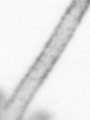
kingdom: Animalia
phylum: Arthropoda
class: Copepoda
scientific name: Copepoda
